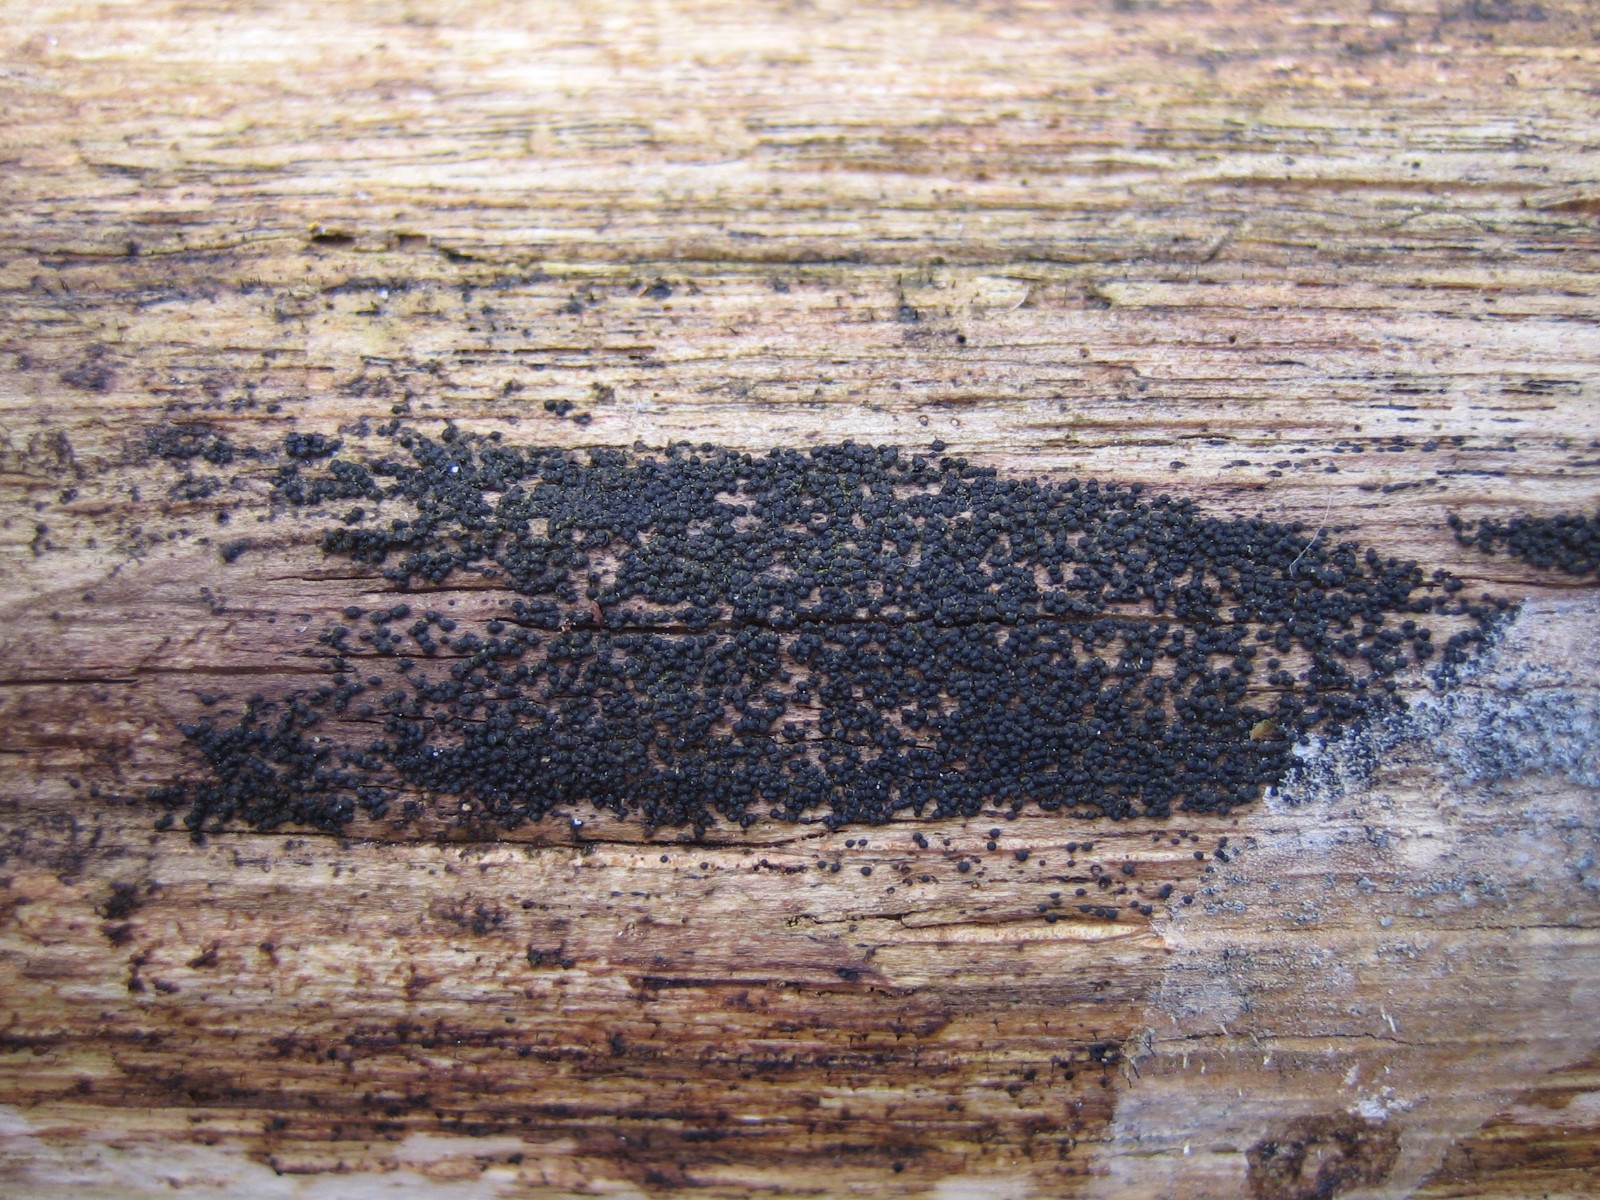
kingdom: Fungi
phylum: Ascomycota
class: Dothideomycetes
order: Pleosporales
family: Melanommataceae
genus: Melanomma
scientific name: Melanomma pulvis-pyrius
